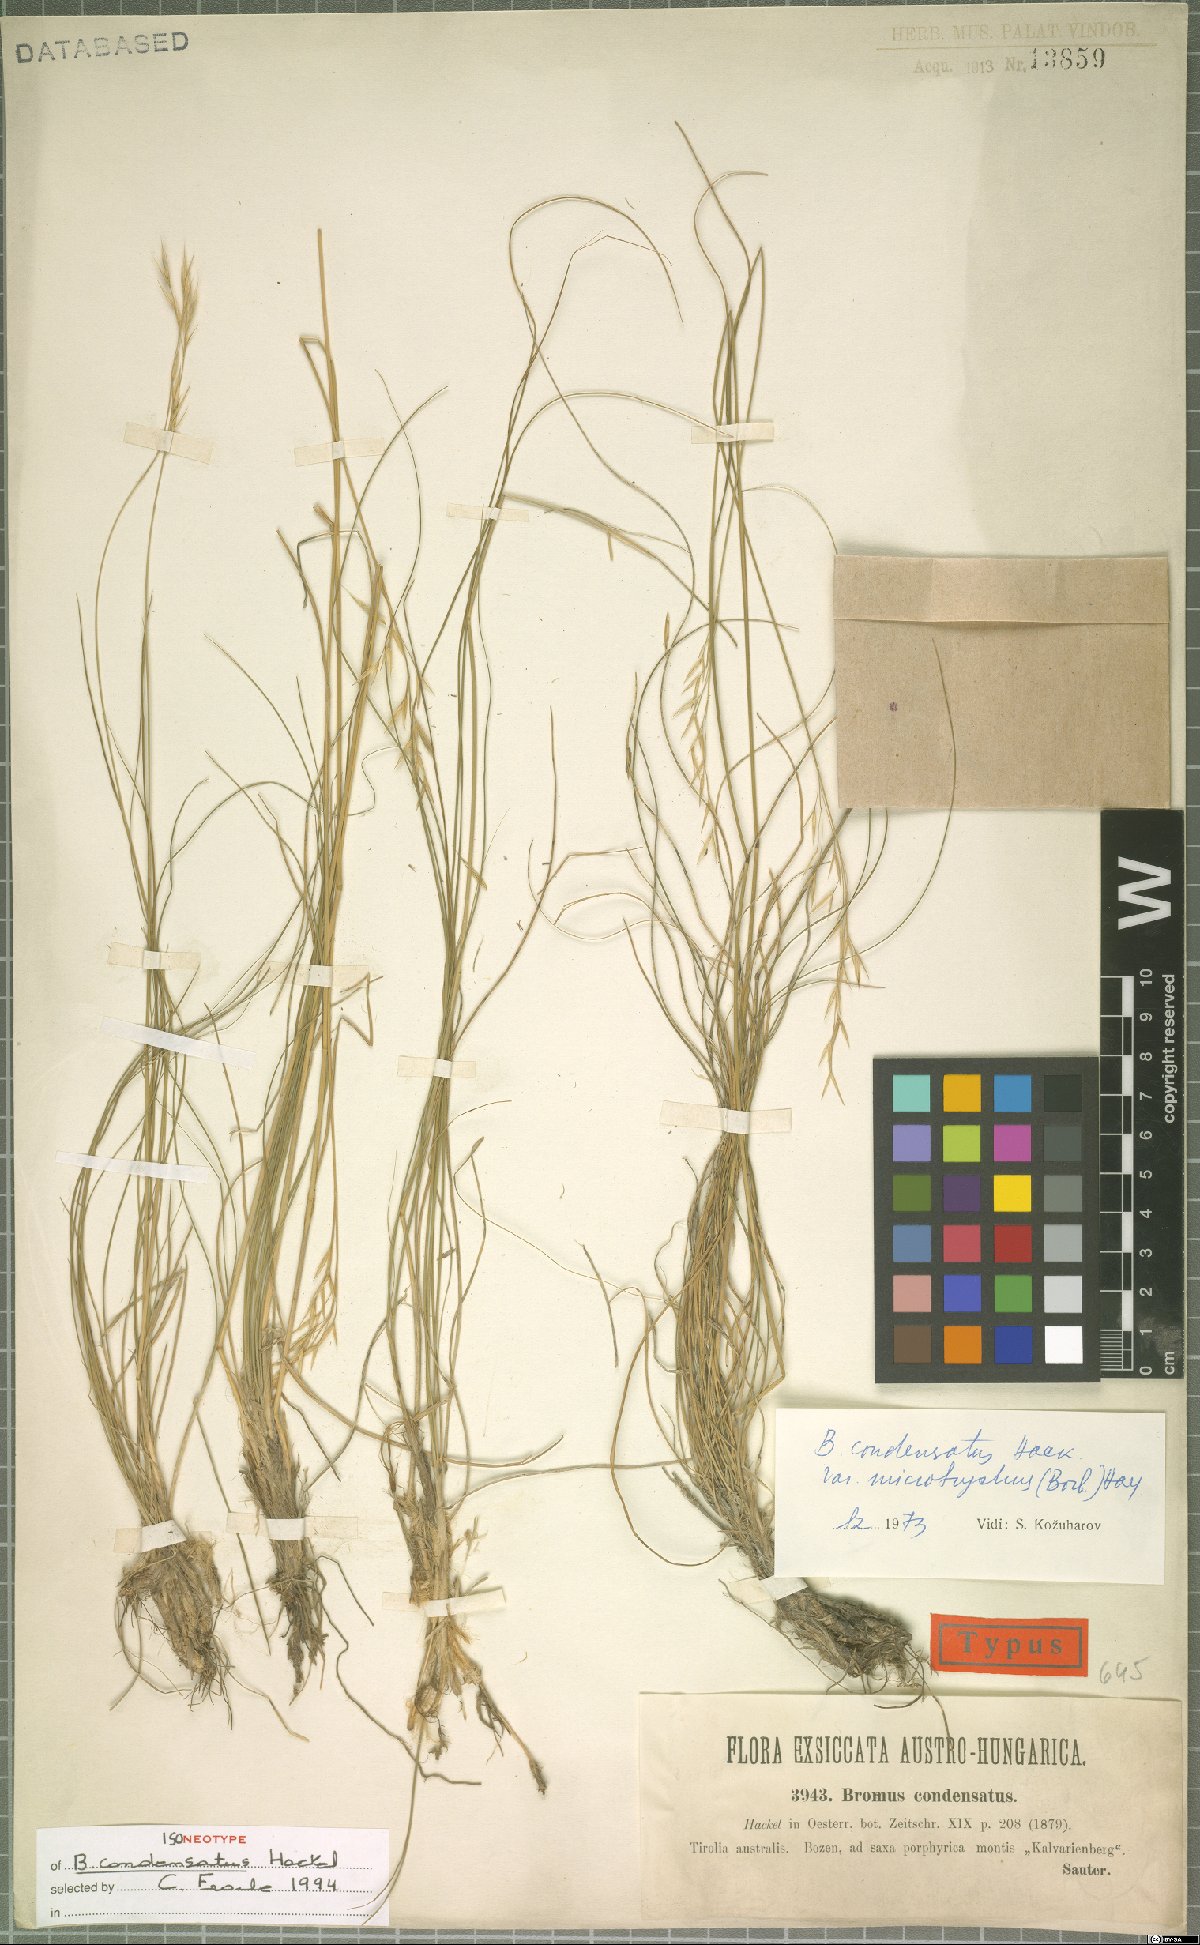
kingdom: Plantae
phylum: Tracheophyta
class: Liliopsida
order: Poales
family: Poaceae
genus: Bromus
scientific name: Bromus condensatus
